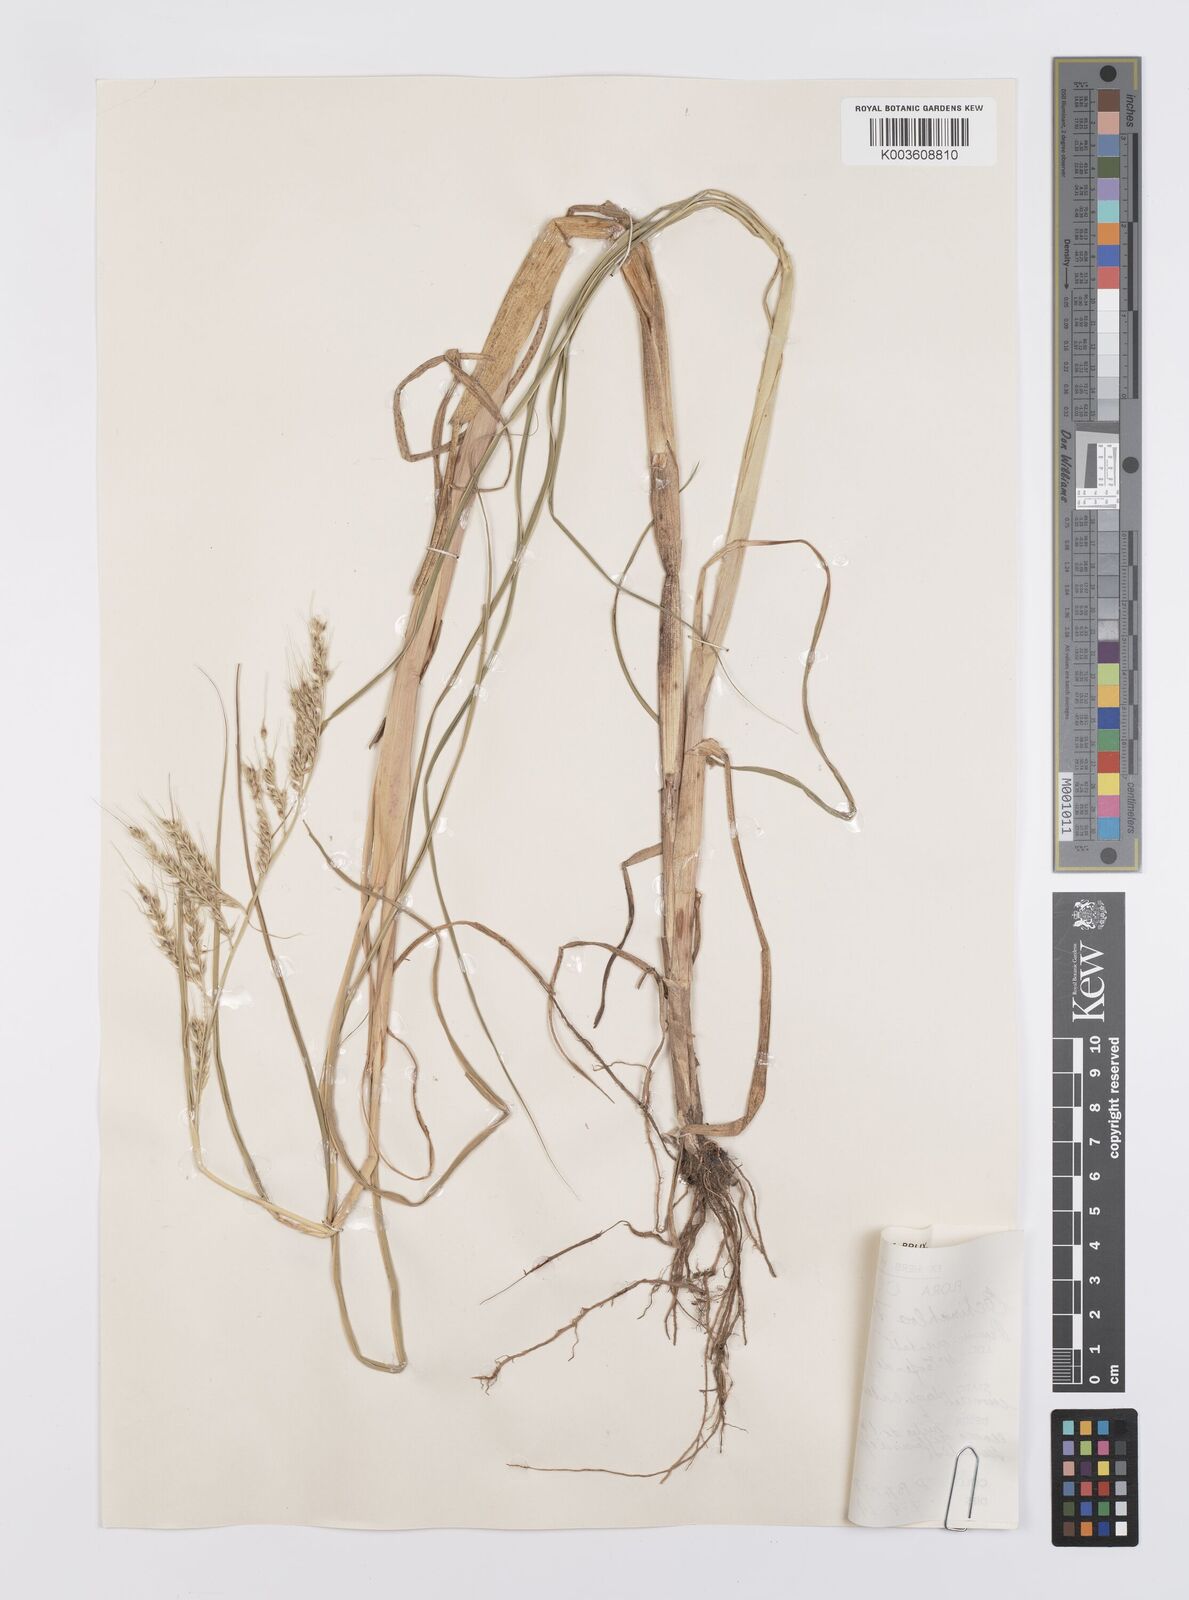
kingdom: Plantae
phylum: Tracheophyta
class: Liliopsida
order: Poales
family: Poaceae
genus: Echinochloa
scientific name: Echinochloa stagnina
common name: Burgu grass
